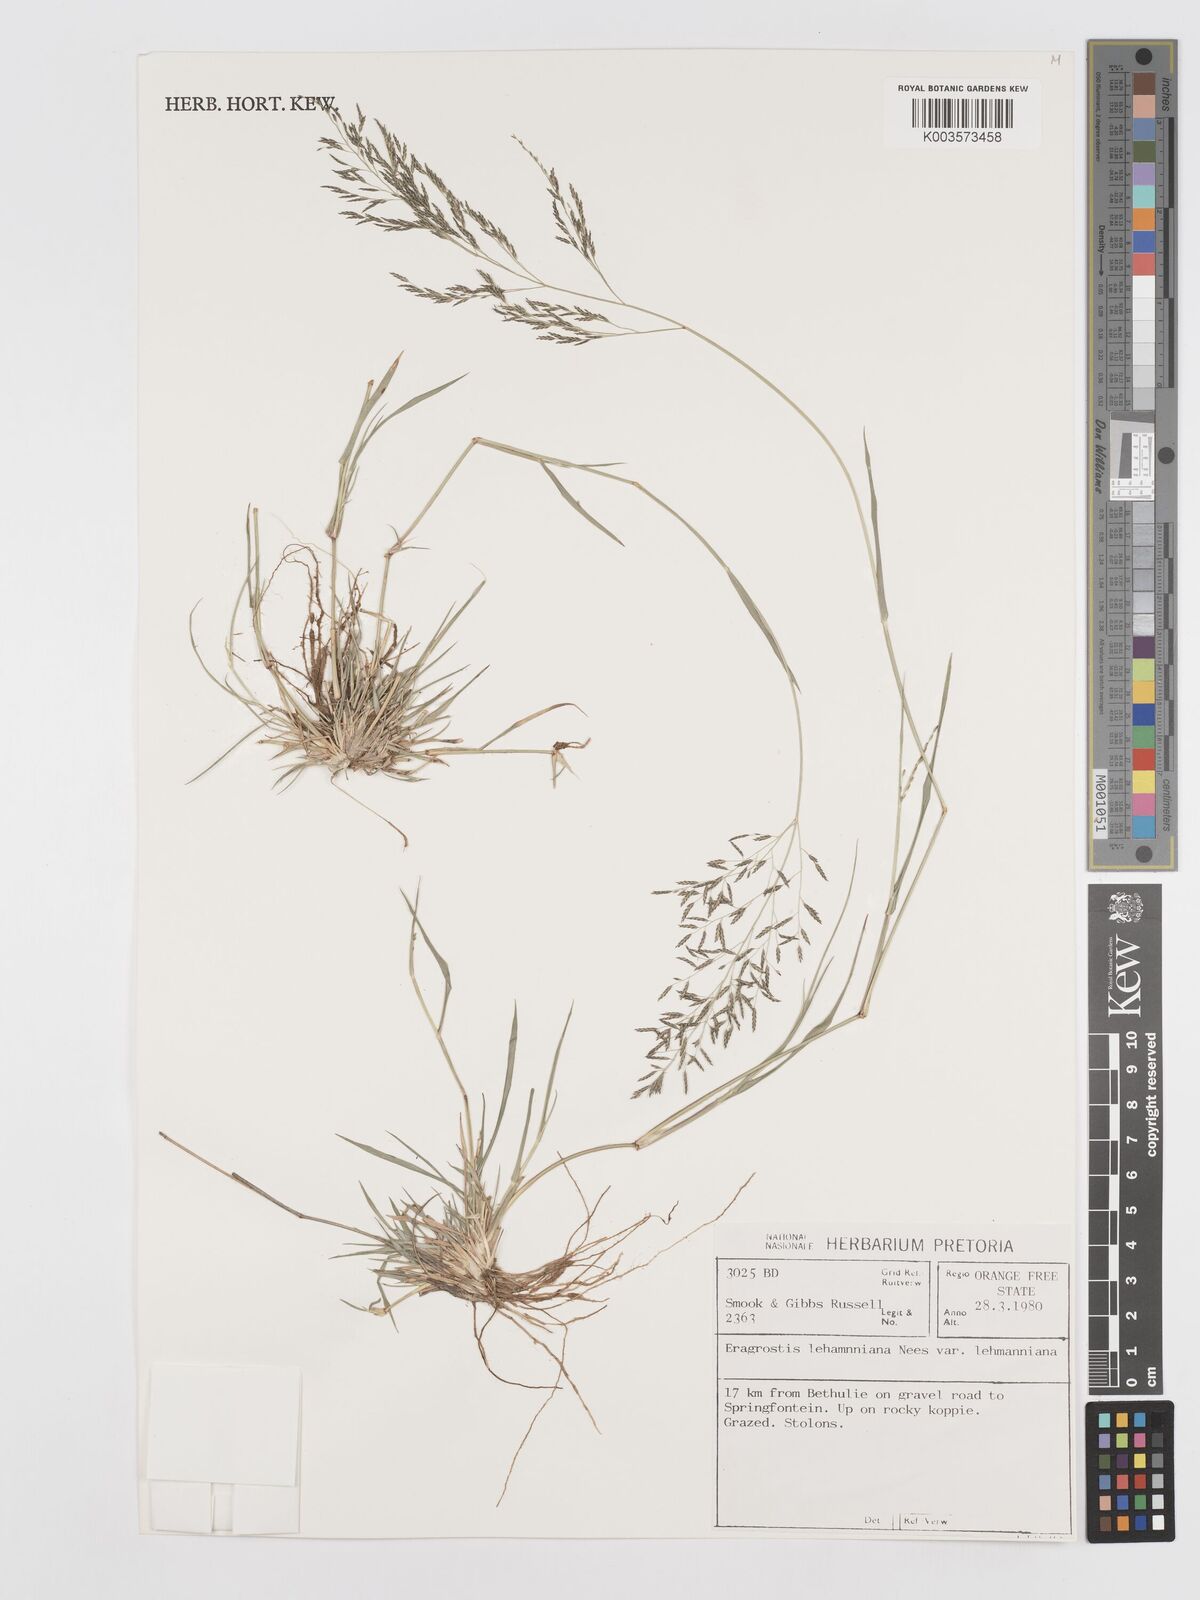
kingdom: Plantae
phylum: Tracheophyta
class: Liliopsida
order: Poales
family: Poaceae
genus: Eragrostis
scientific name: Eragrostis lehmanniana
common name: Lehmann lovegrass
